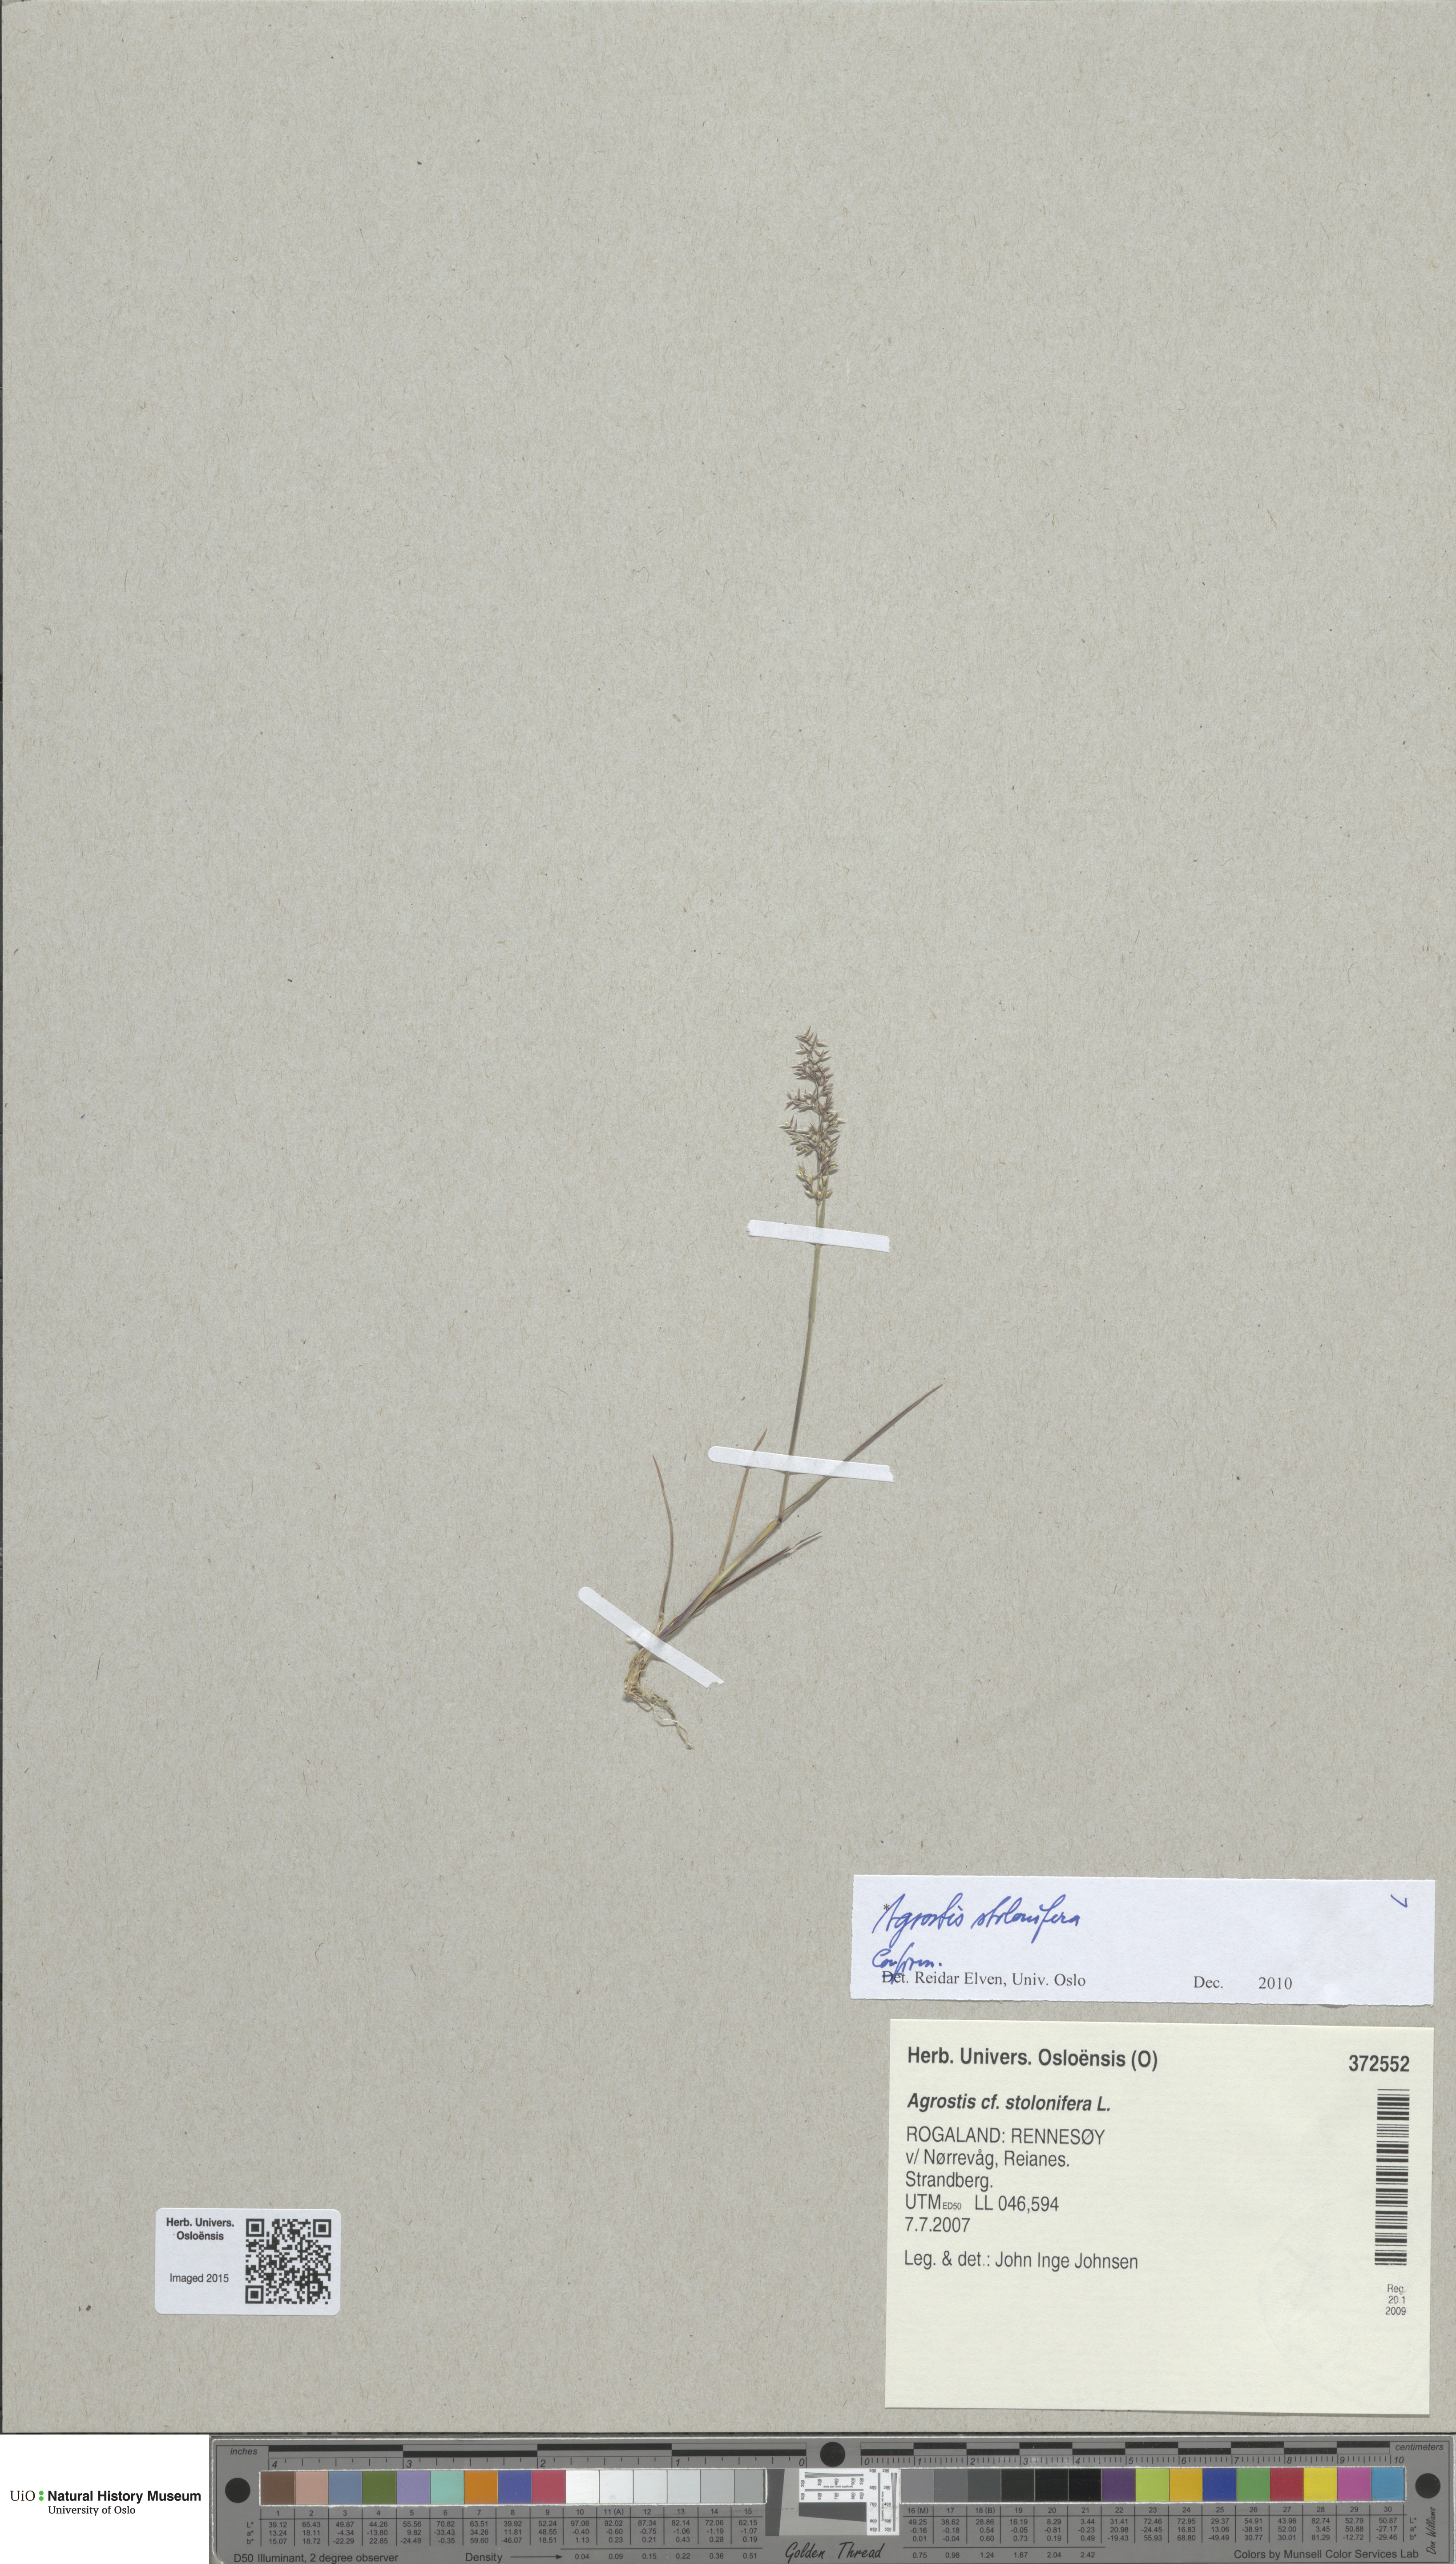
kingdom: Plantae
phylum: Tracheophyta
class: Liliopsida
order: Poales
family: Poaceae
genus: Agrostis
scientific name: Agrostis stolonifera
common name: Creeping bentgrass
